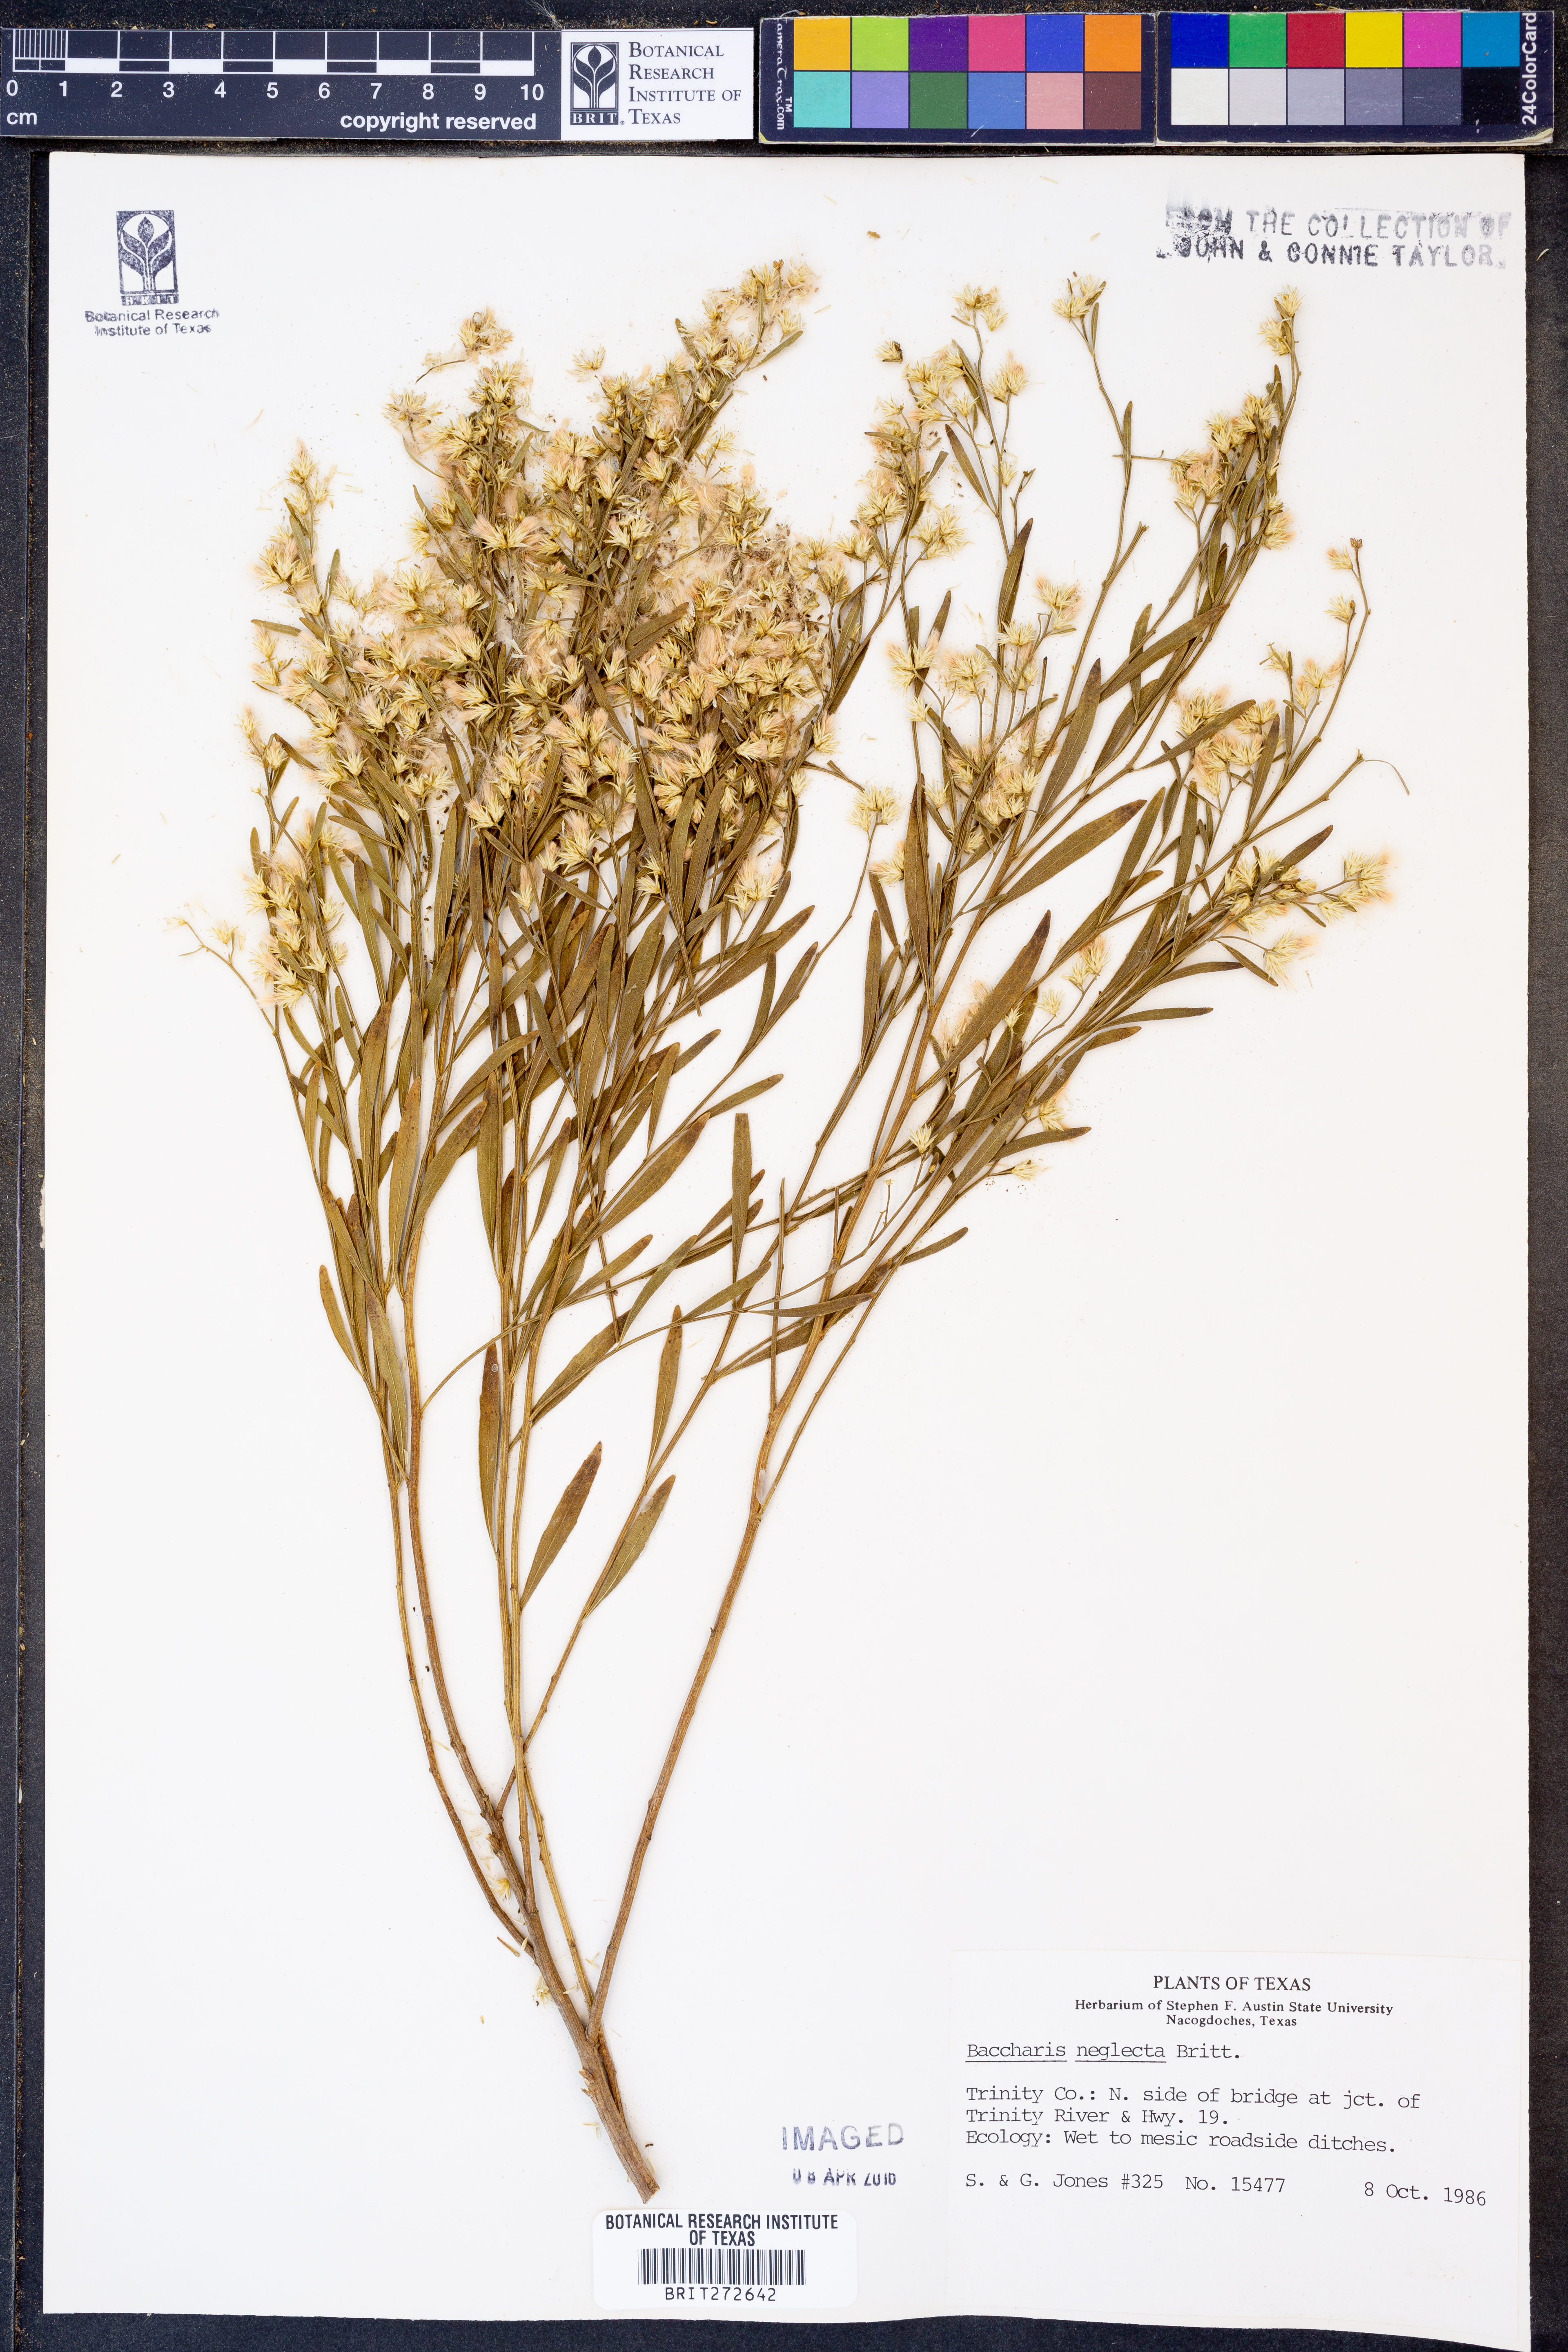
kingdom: Plantae
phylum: Tracheophyta
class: Magnoliopsida
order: Asterales
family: Asteraceae
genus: Baccharis
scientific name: Baccharis neglecta
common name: Roosevelt-weed
